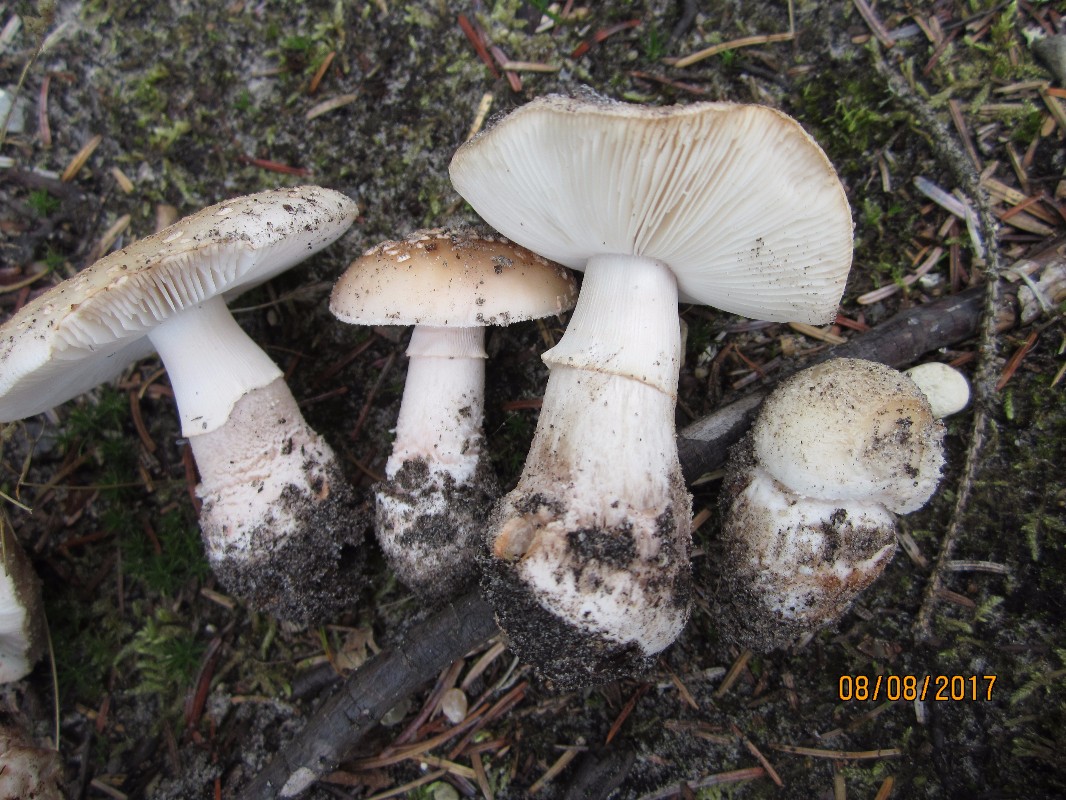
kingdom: Fungi
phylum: Basidiomycota
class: Agaricomycetes
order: Agaricales
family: Amanitaceae
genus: Amanita
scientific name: Amanita rubescens
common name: rødmende fluesvamp
